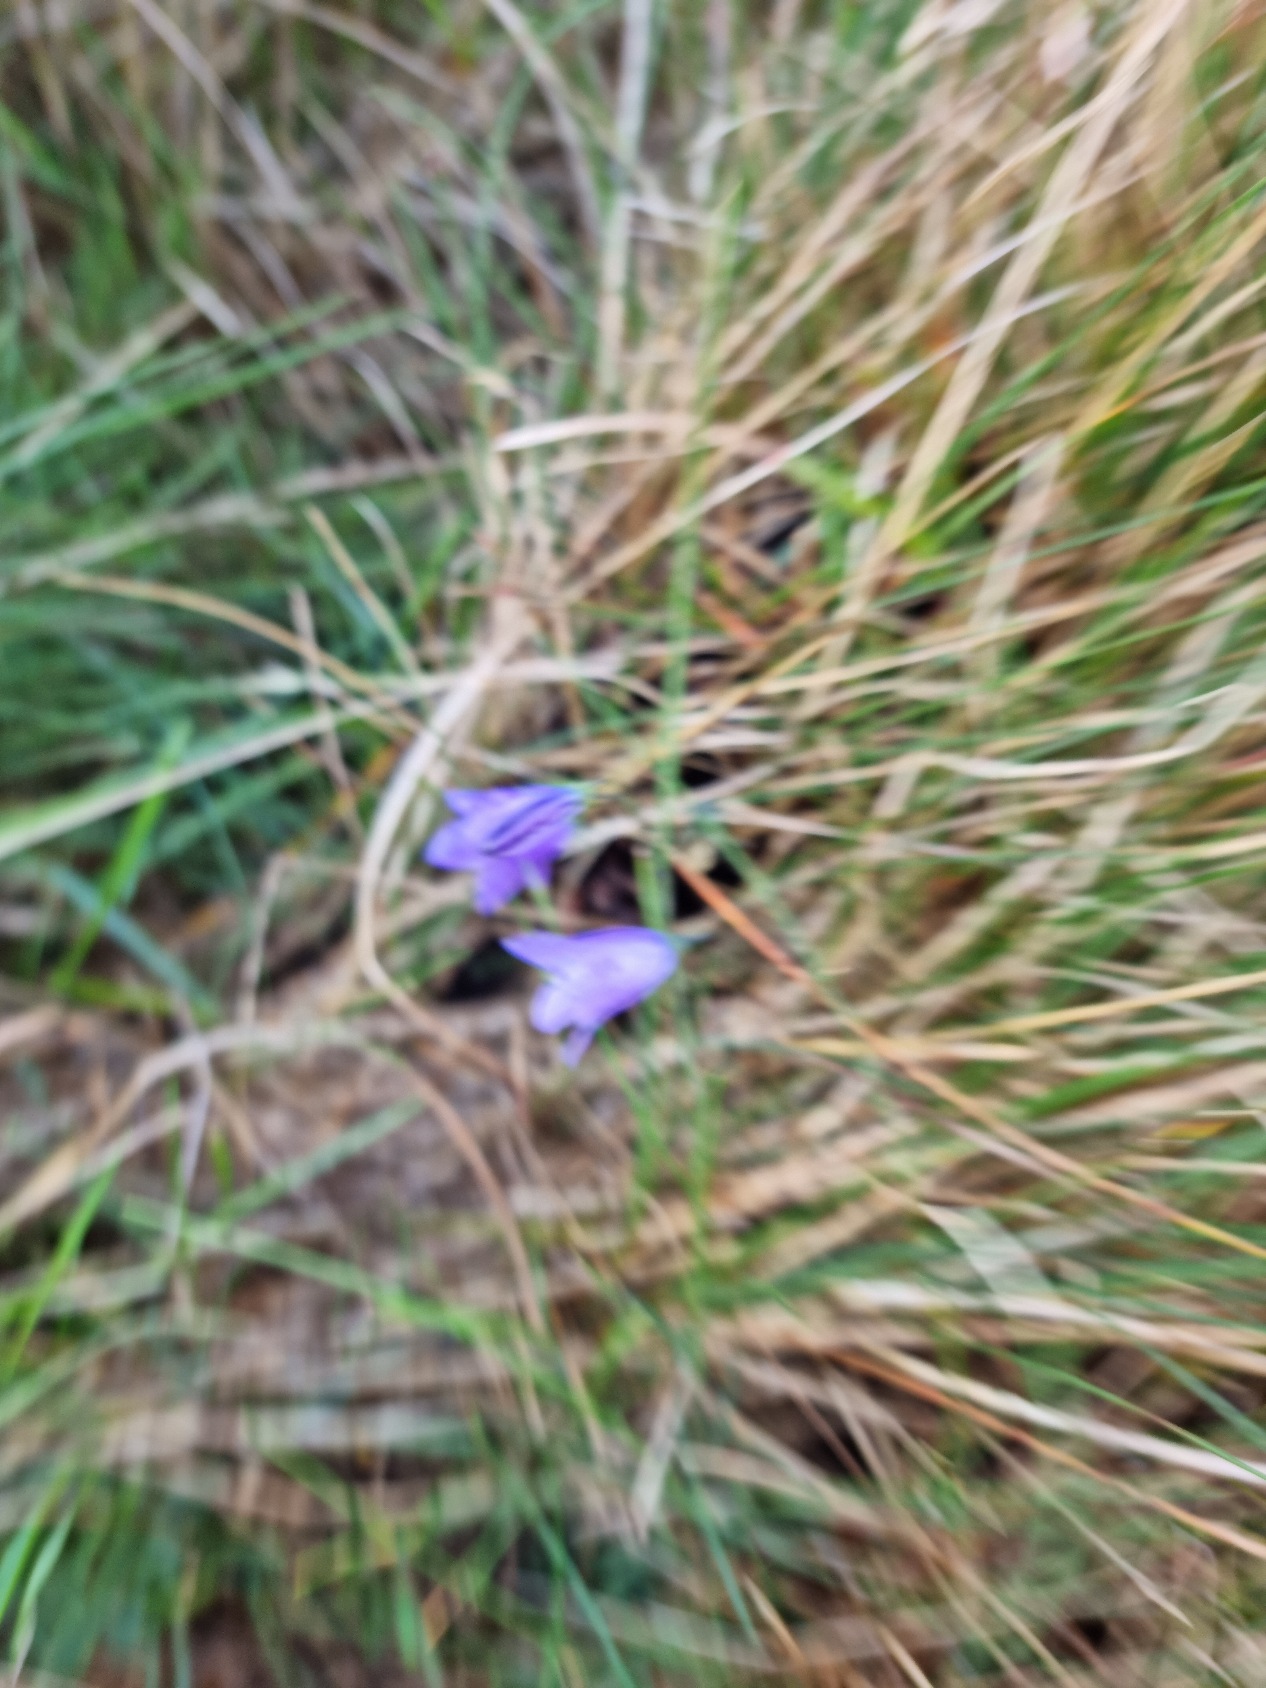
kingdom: Plantae
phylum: Tracheophyta
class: Magnoliopsida
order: Asterales
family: Campanulaceae
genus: Campanula
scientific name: Campanula rotundifolia
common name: Liden klokke
